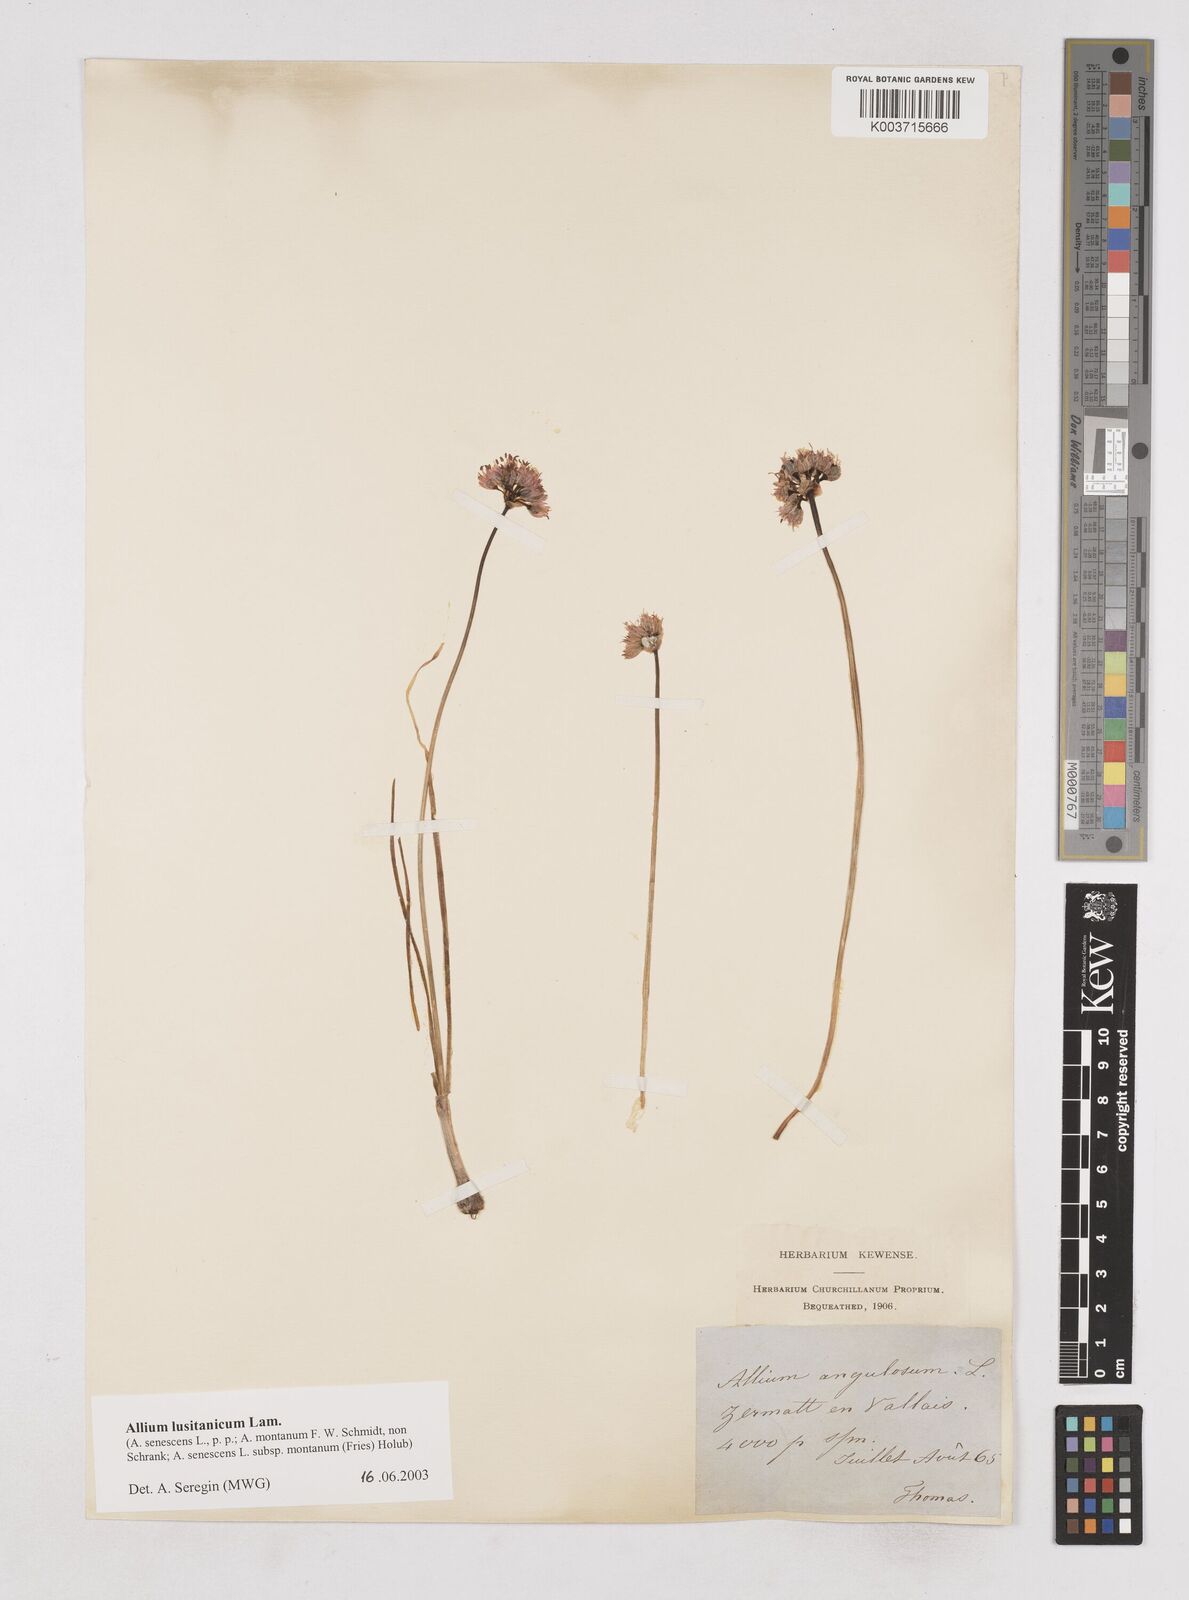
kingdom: Plantae
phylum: Tracheophyta
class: Liliopsida
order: Asparagales
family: Amaryllidaceae
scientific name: Amaryllidaceae
